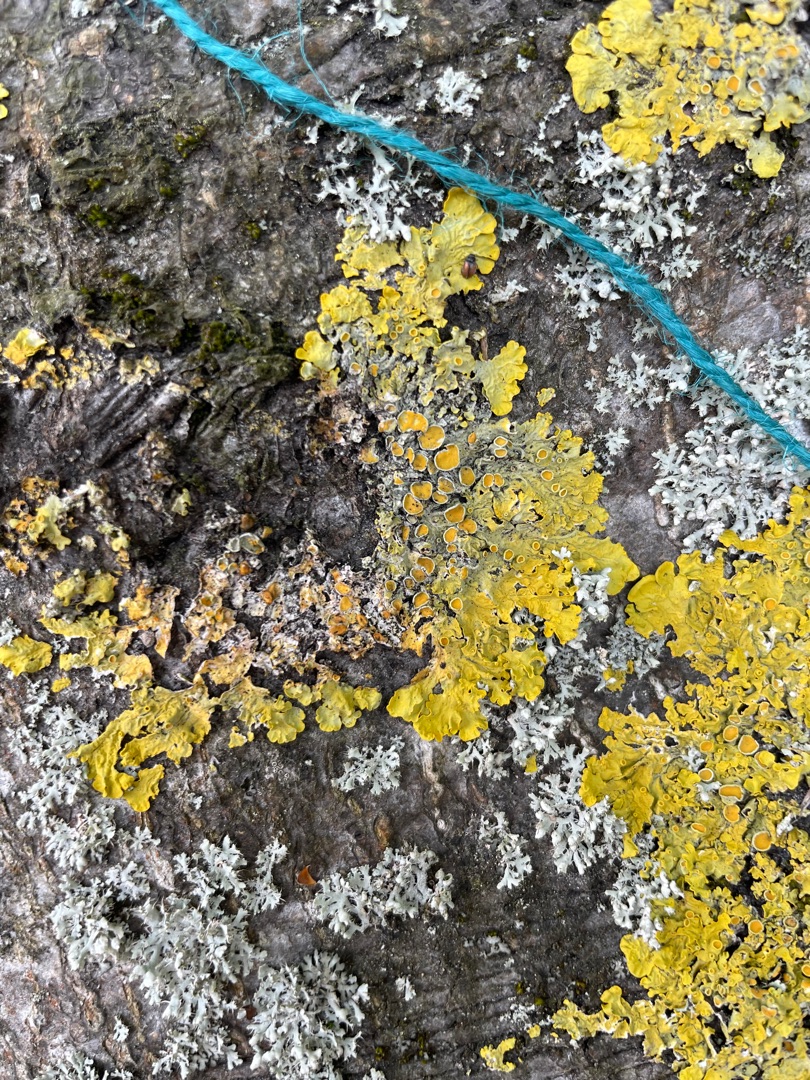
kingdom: Fungi
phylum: Ascomycota
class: Lecanoromycetes
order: Teloschistales
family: Teloschistaceae
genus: Xanthoria
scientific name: Xanthoria parietina
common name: Almindelig væggelav
